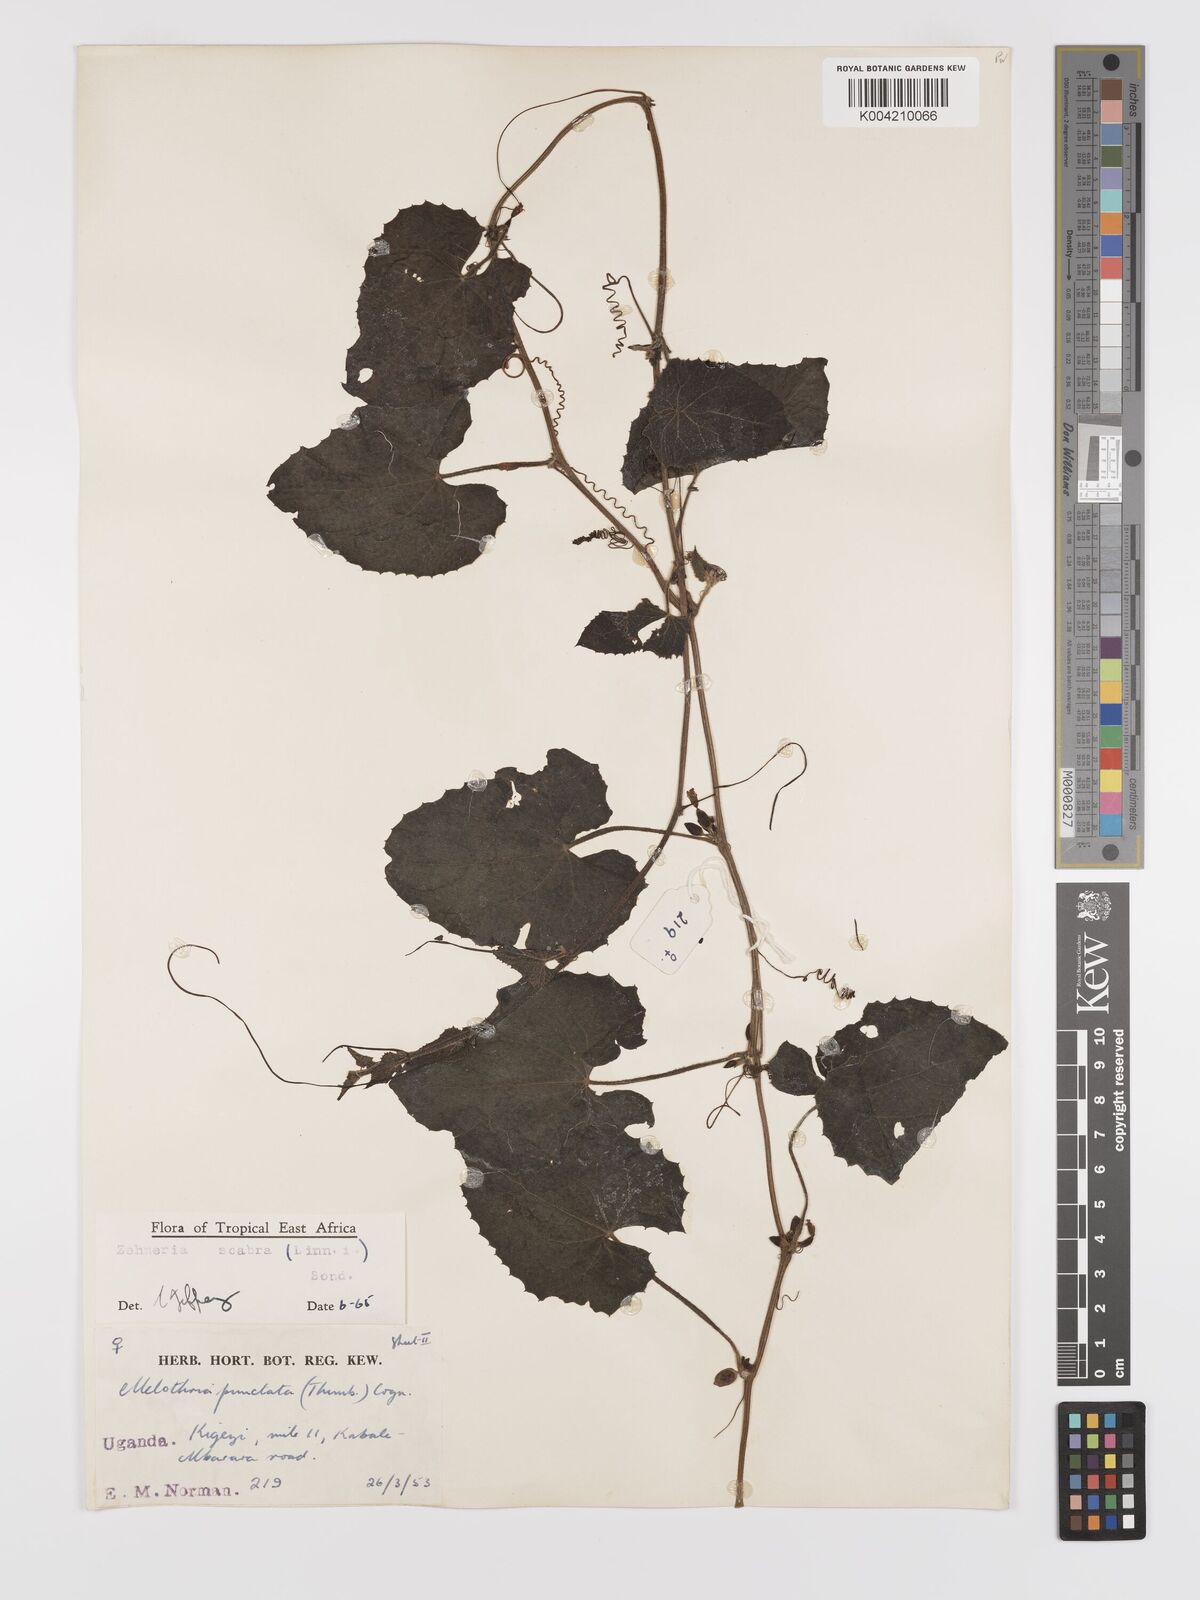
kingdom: Plantae
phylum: Tracheophyta
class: Magnoliopsida
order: Cucurbitales
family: Cucurbitaceae
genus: Zehneria
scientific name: Zehneria scabra
